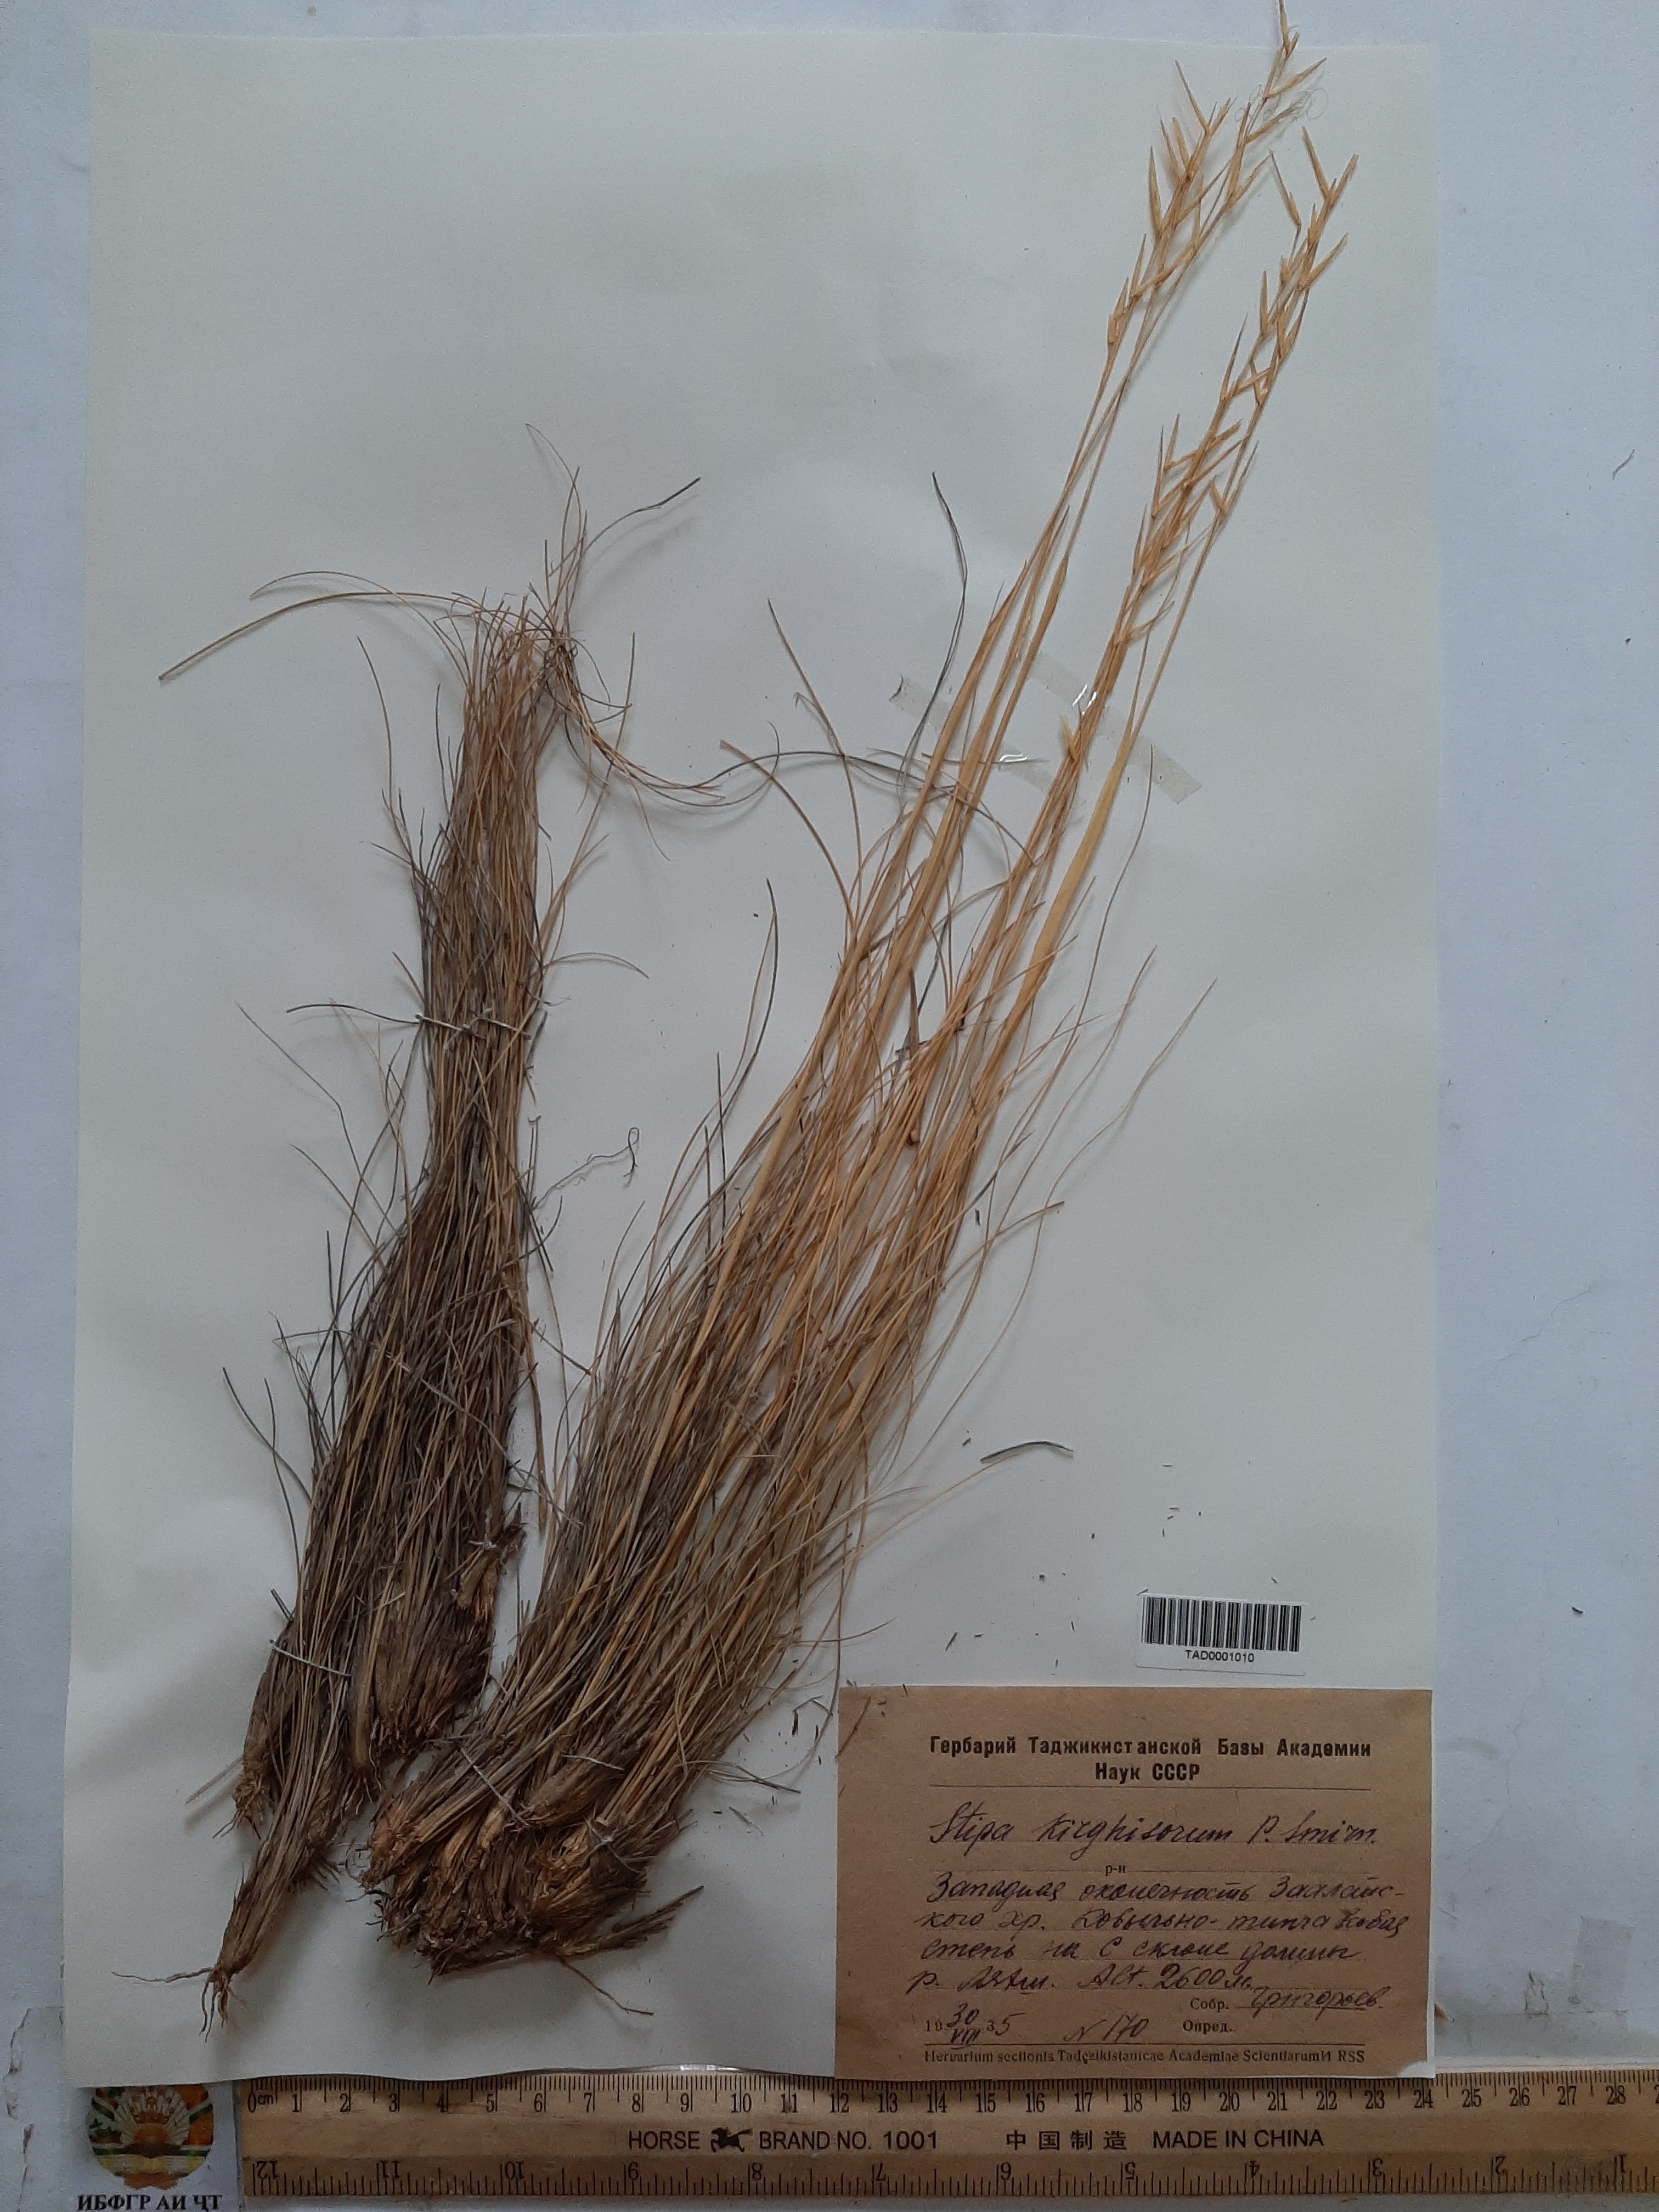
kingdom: Plantae
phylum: Tracheophyta
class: Liliopsida
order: Poales
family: Poaceae
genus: Stipa
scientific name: Stipa kirghisorum
